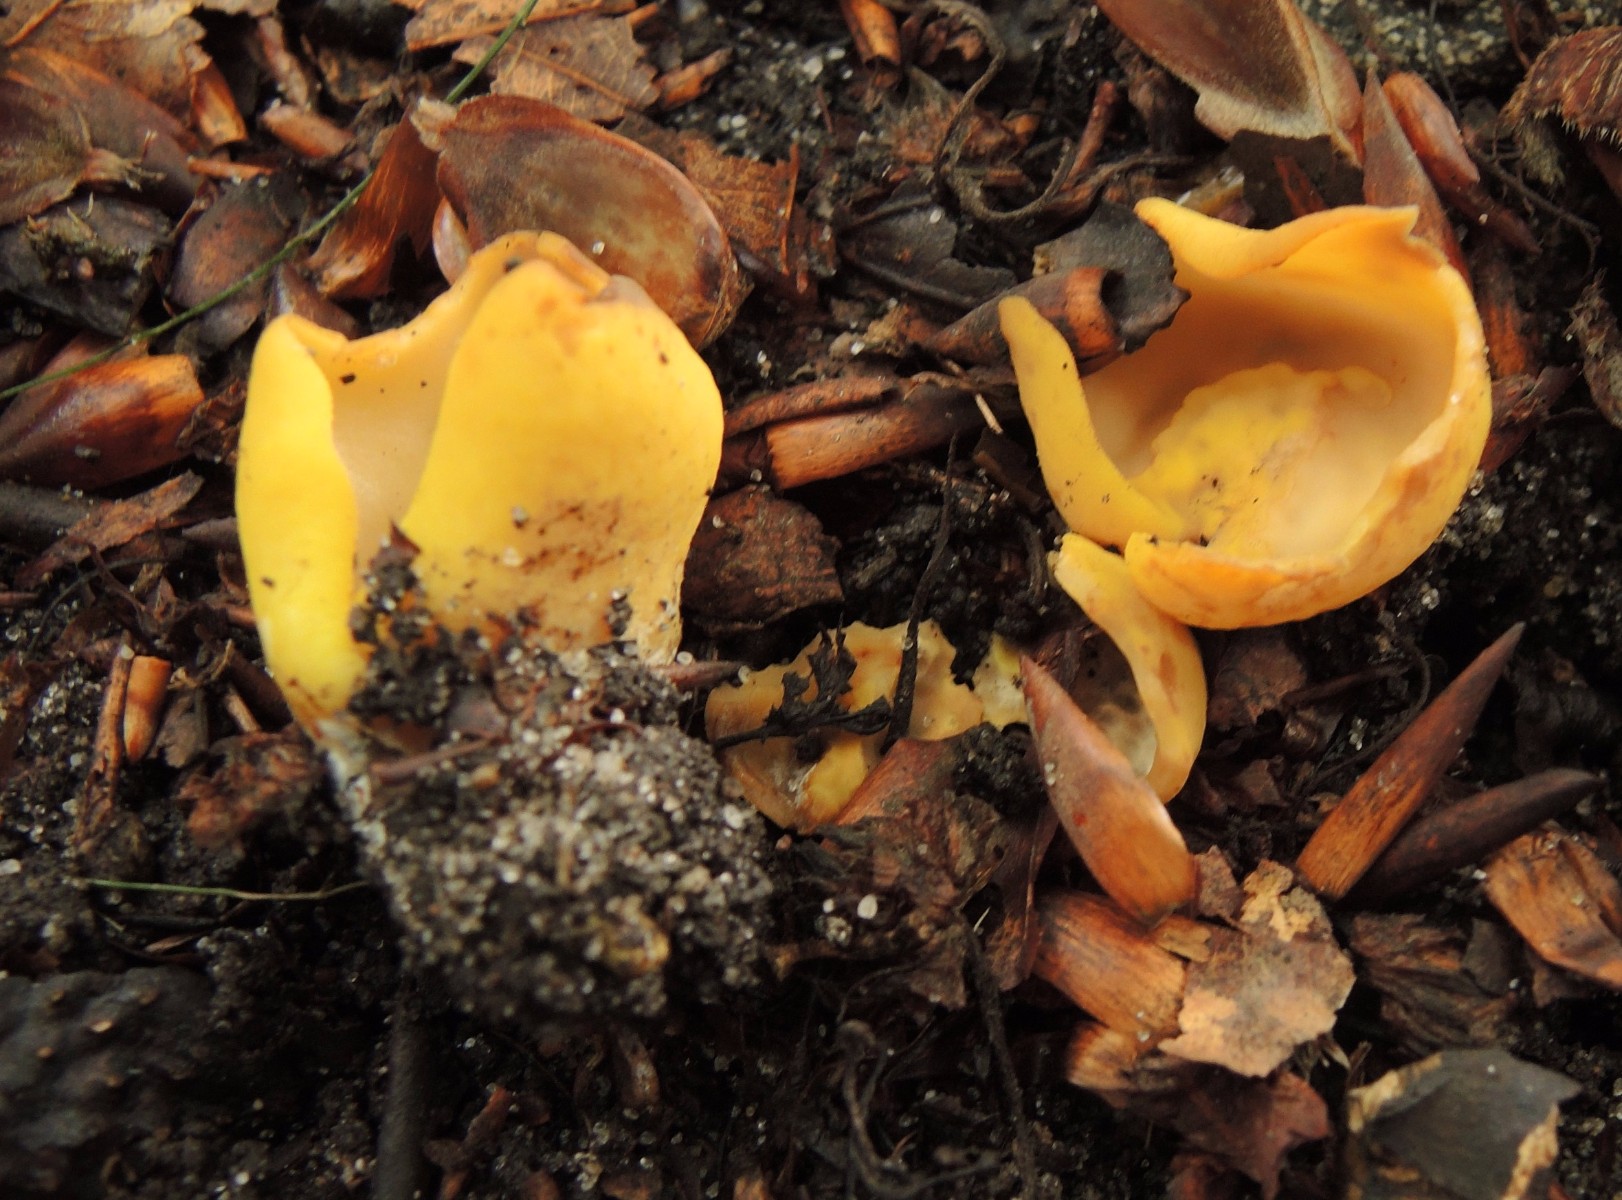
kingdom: Fungi
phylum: Ascomycota
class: Pezizomycetes
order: Pezizales
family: Otideaceae
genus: Otidea
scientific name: Otidea cantharella
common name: citrongul ørebæger
